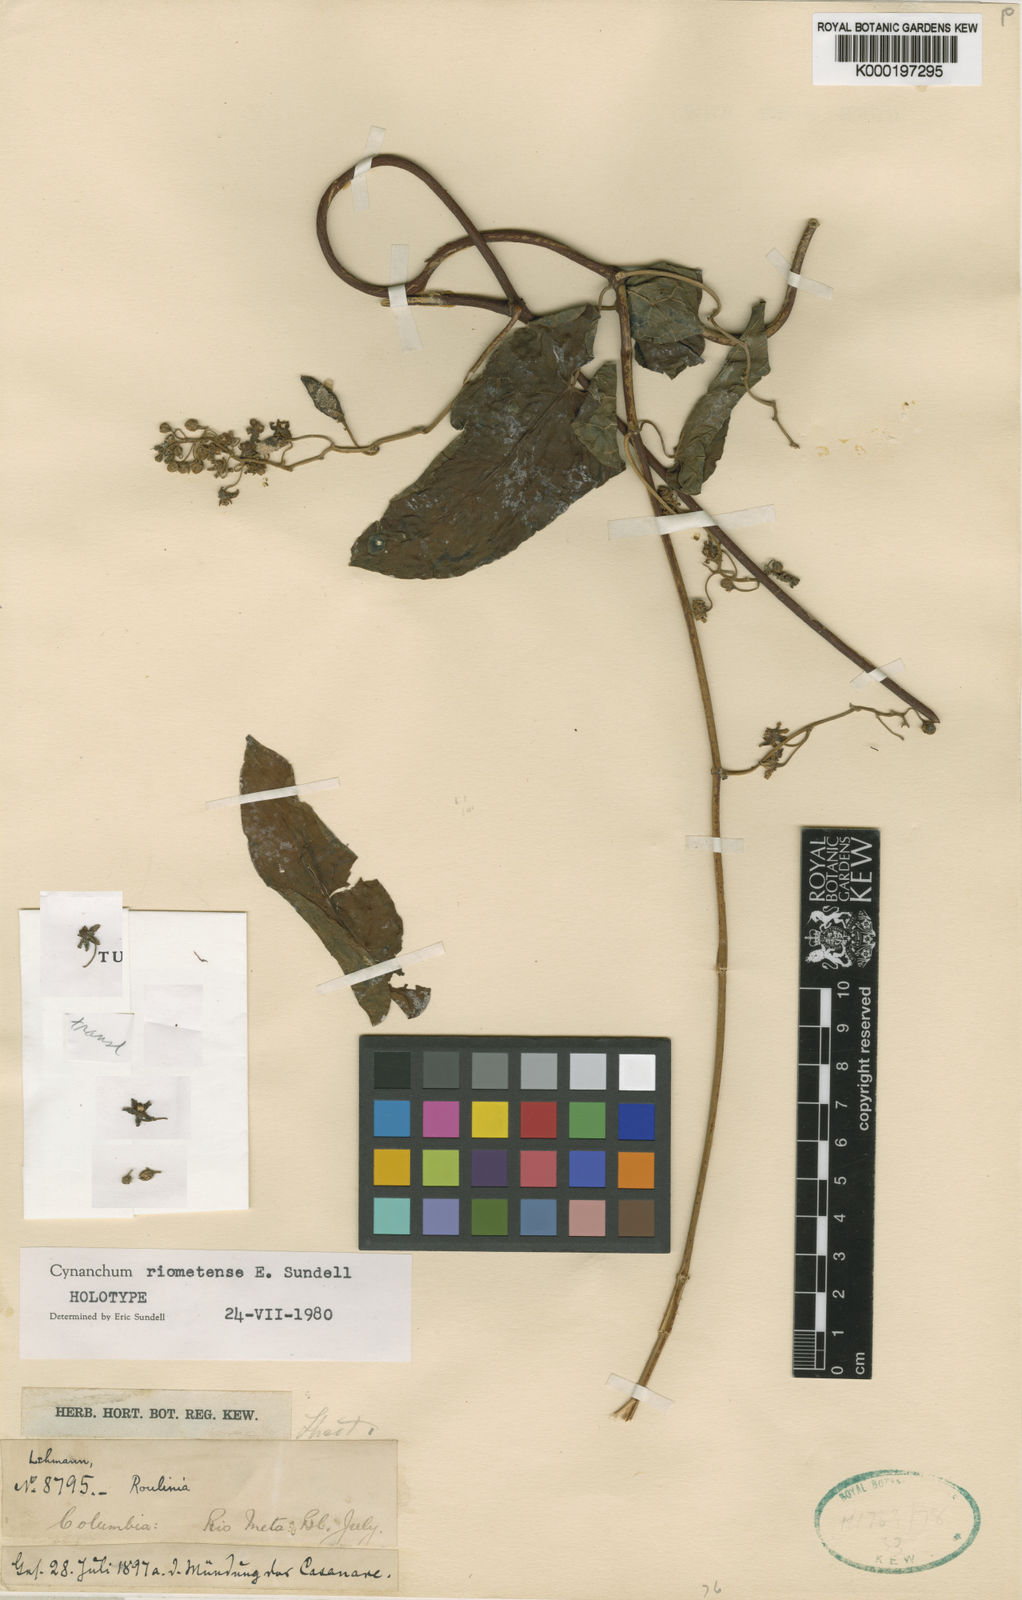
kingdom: Plantae
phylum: Tracheophyta
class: Magnoliopsida
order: Gentianales
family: Apocynaceae
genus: Cynanchum
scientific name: Cynanchum riometense
